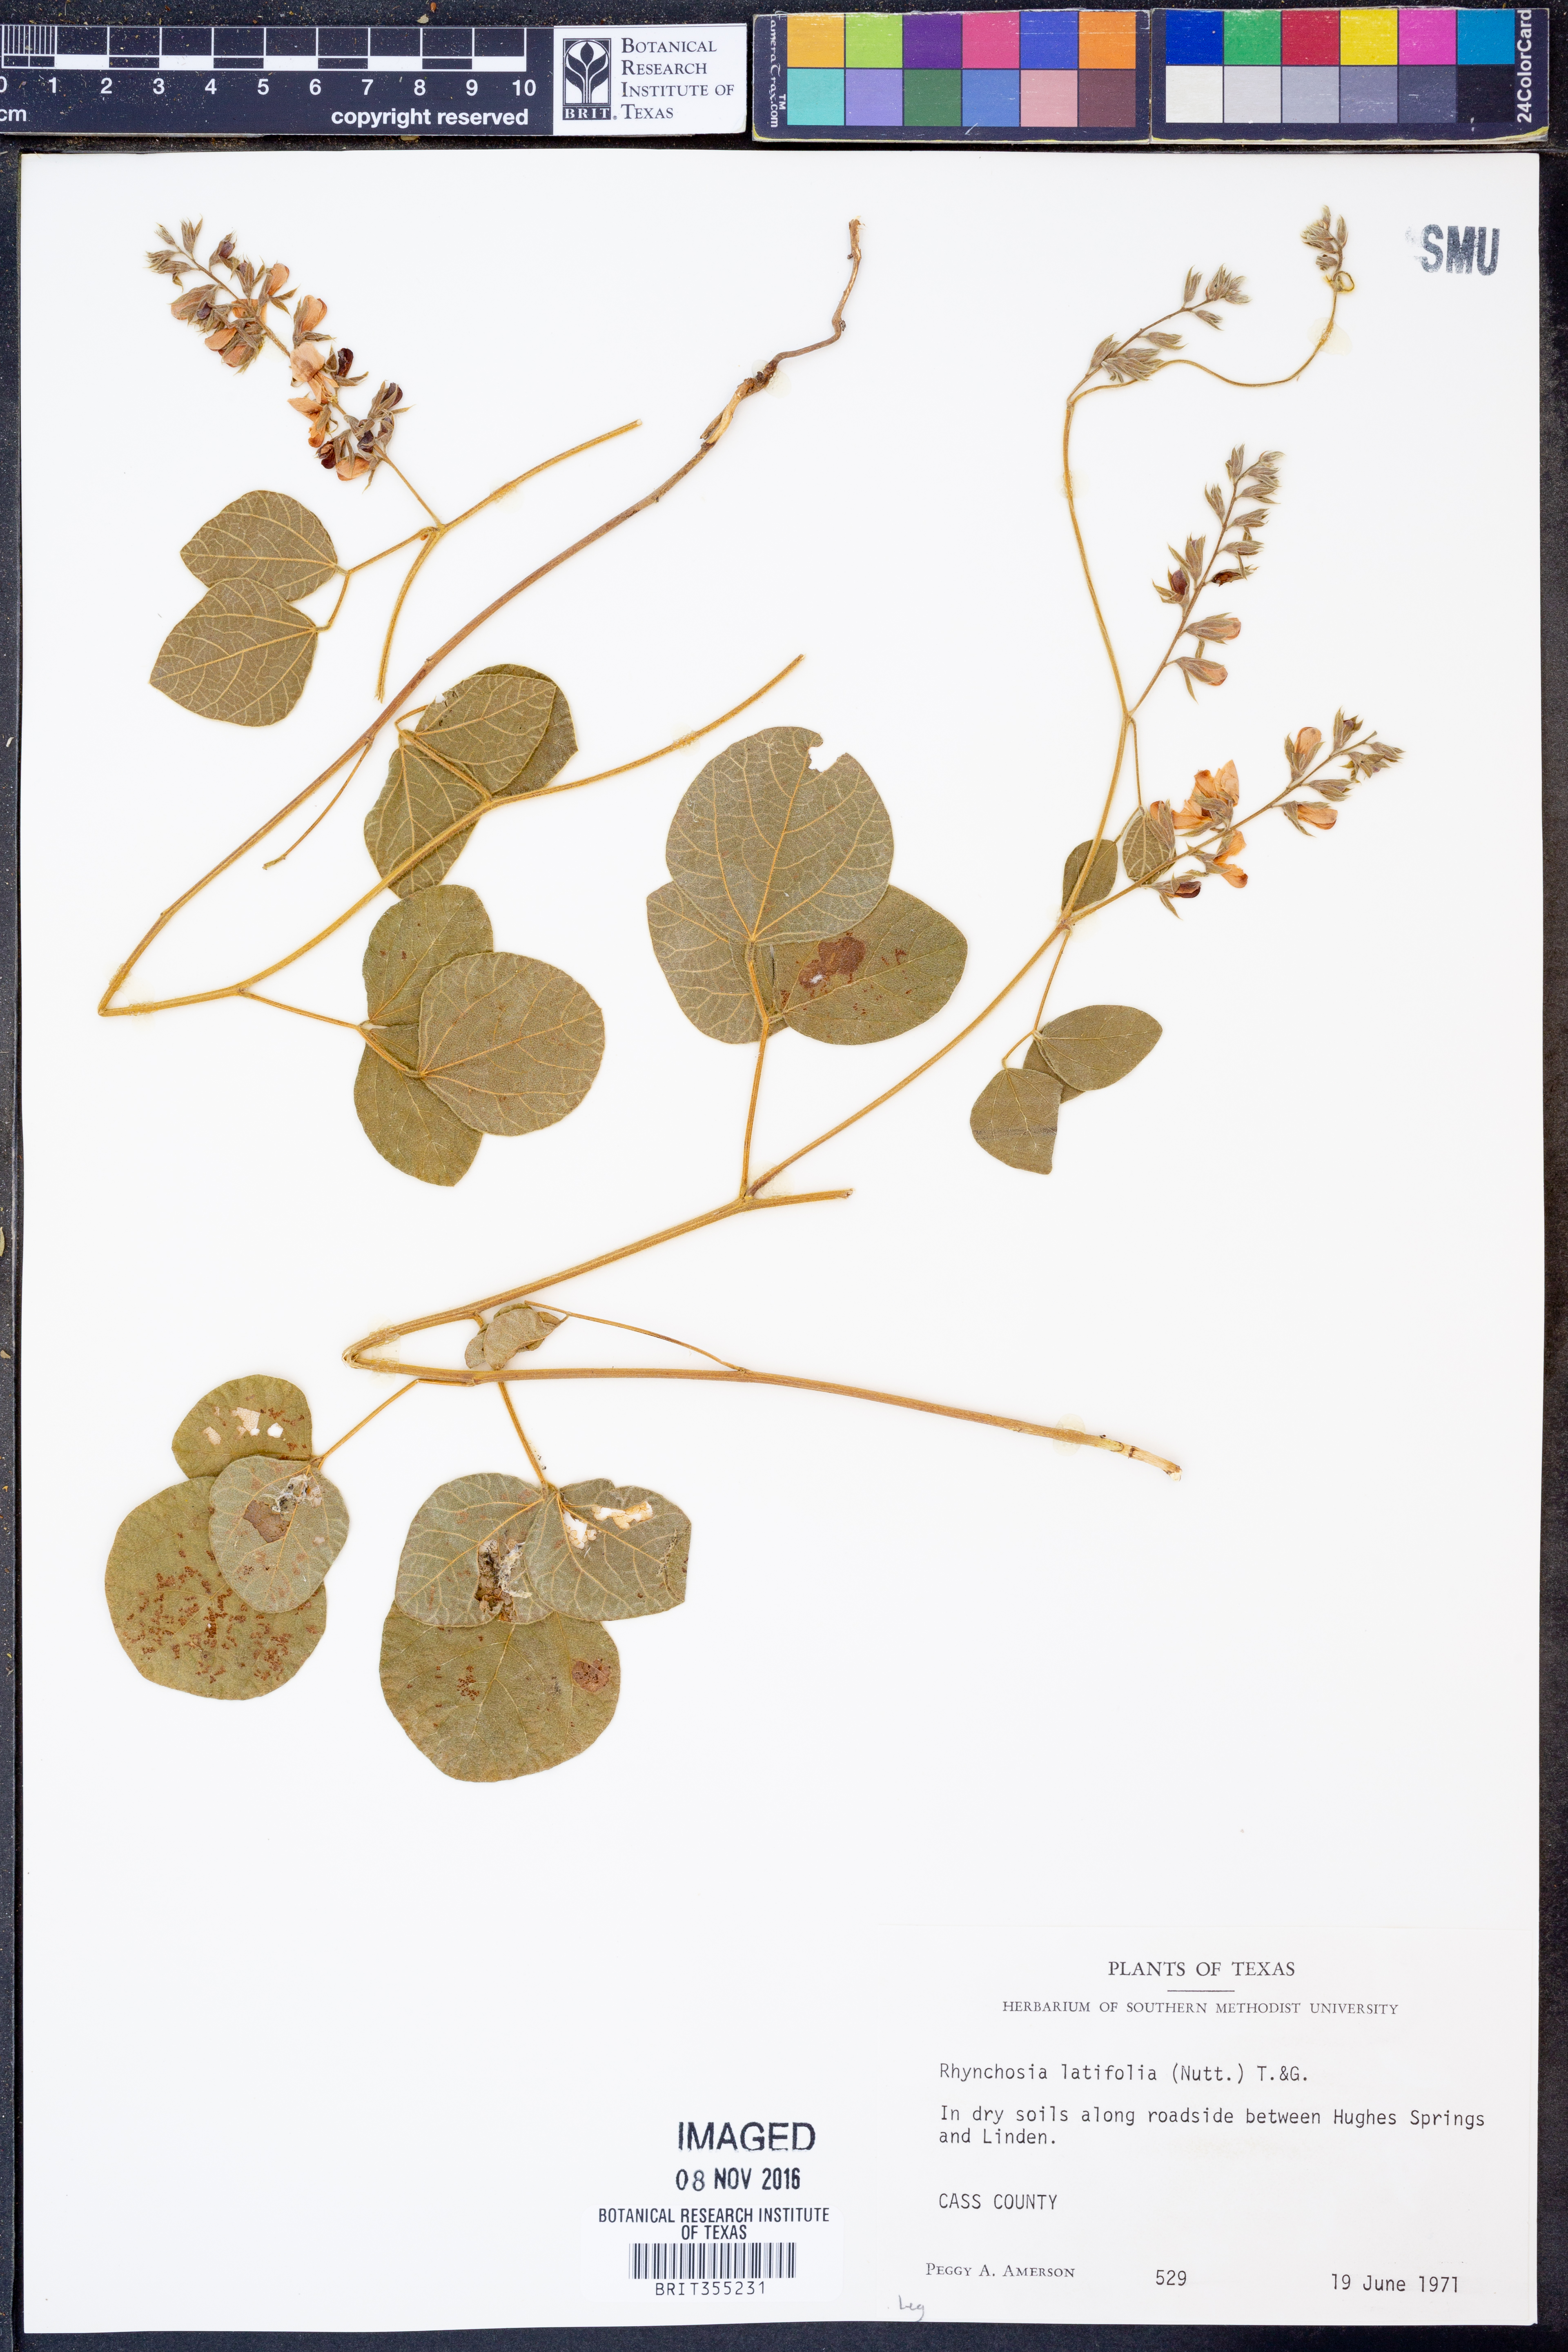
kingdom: Plantae
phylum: Tracheophyta
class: Magnoliopsida
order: Fabales
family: Fabaceae
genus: Rhynchosia
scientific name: Rhynchosia latifolia
